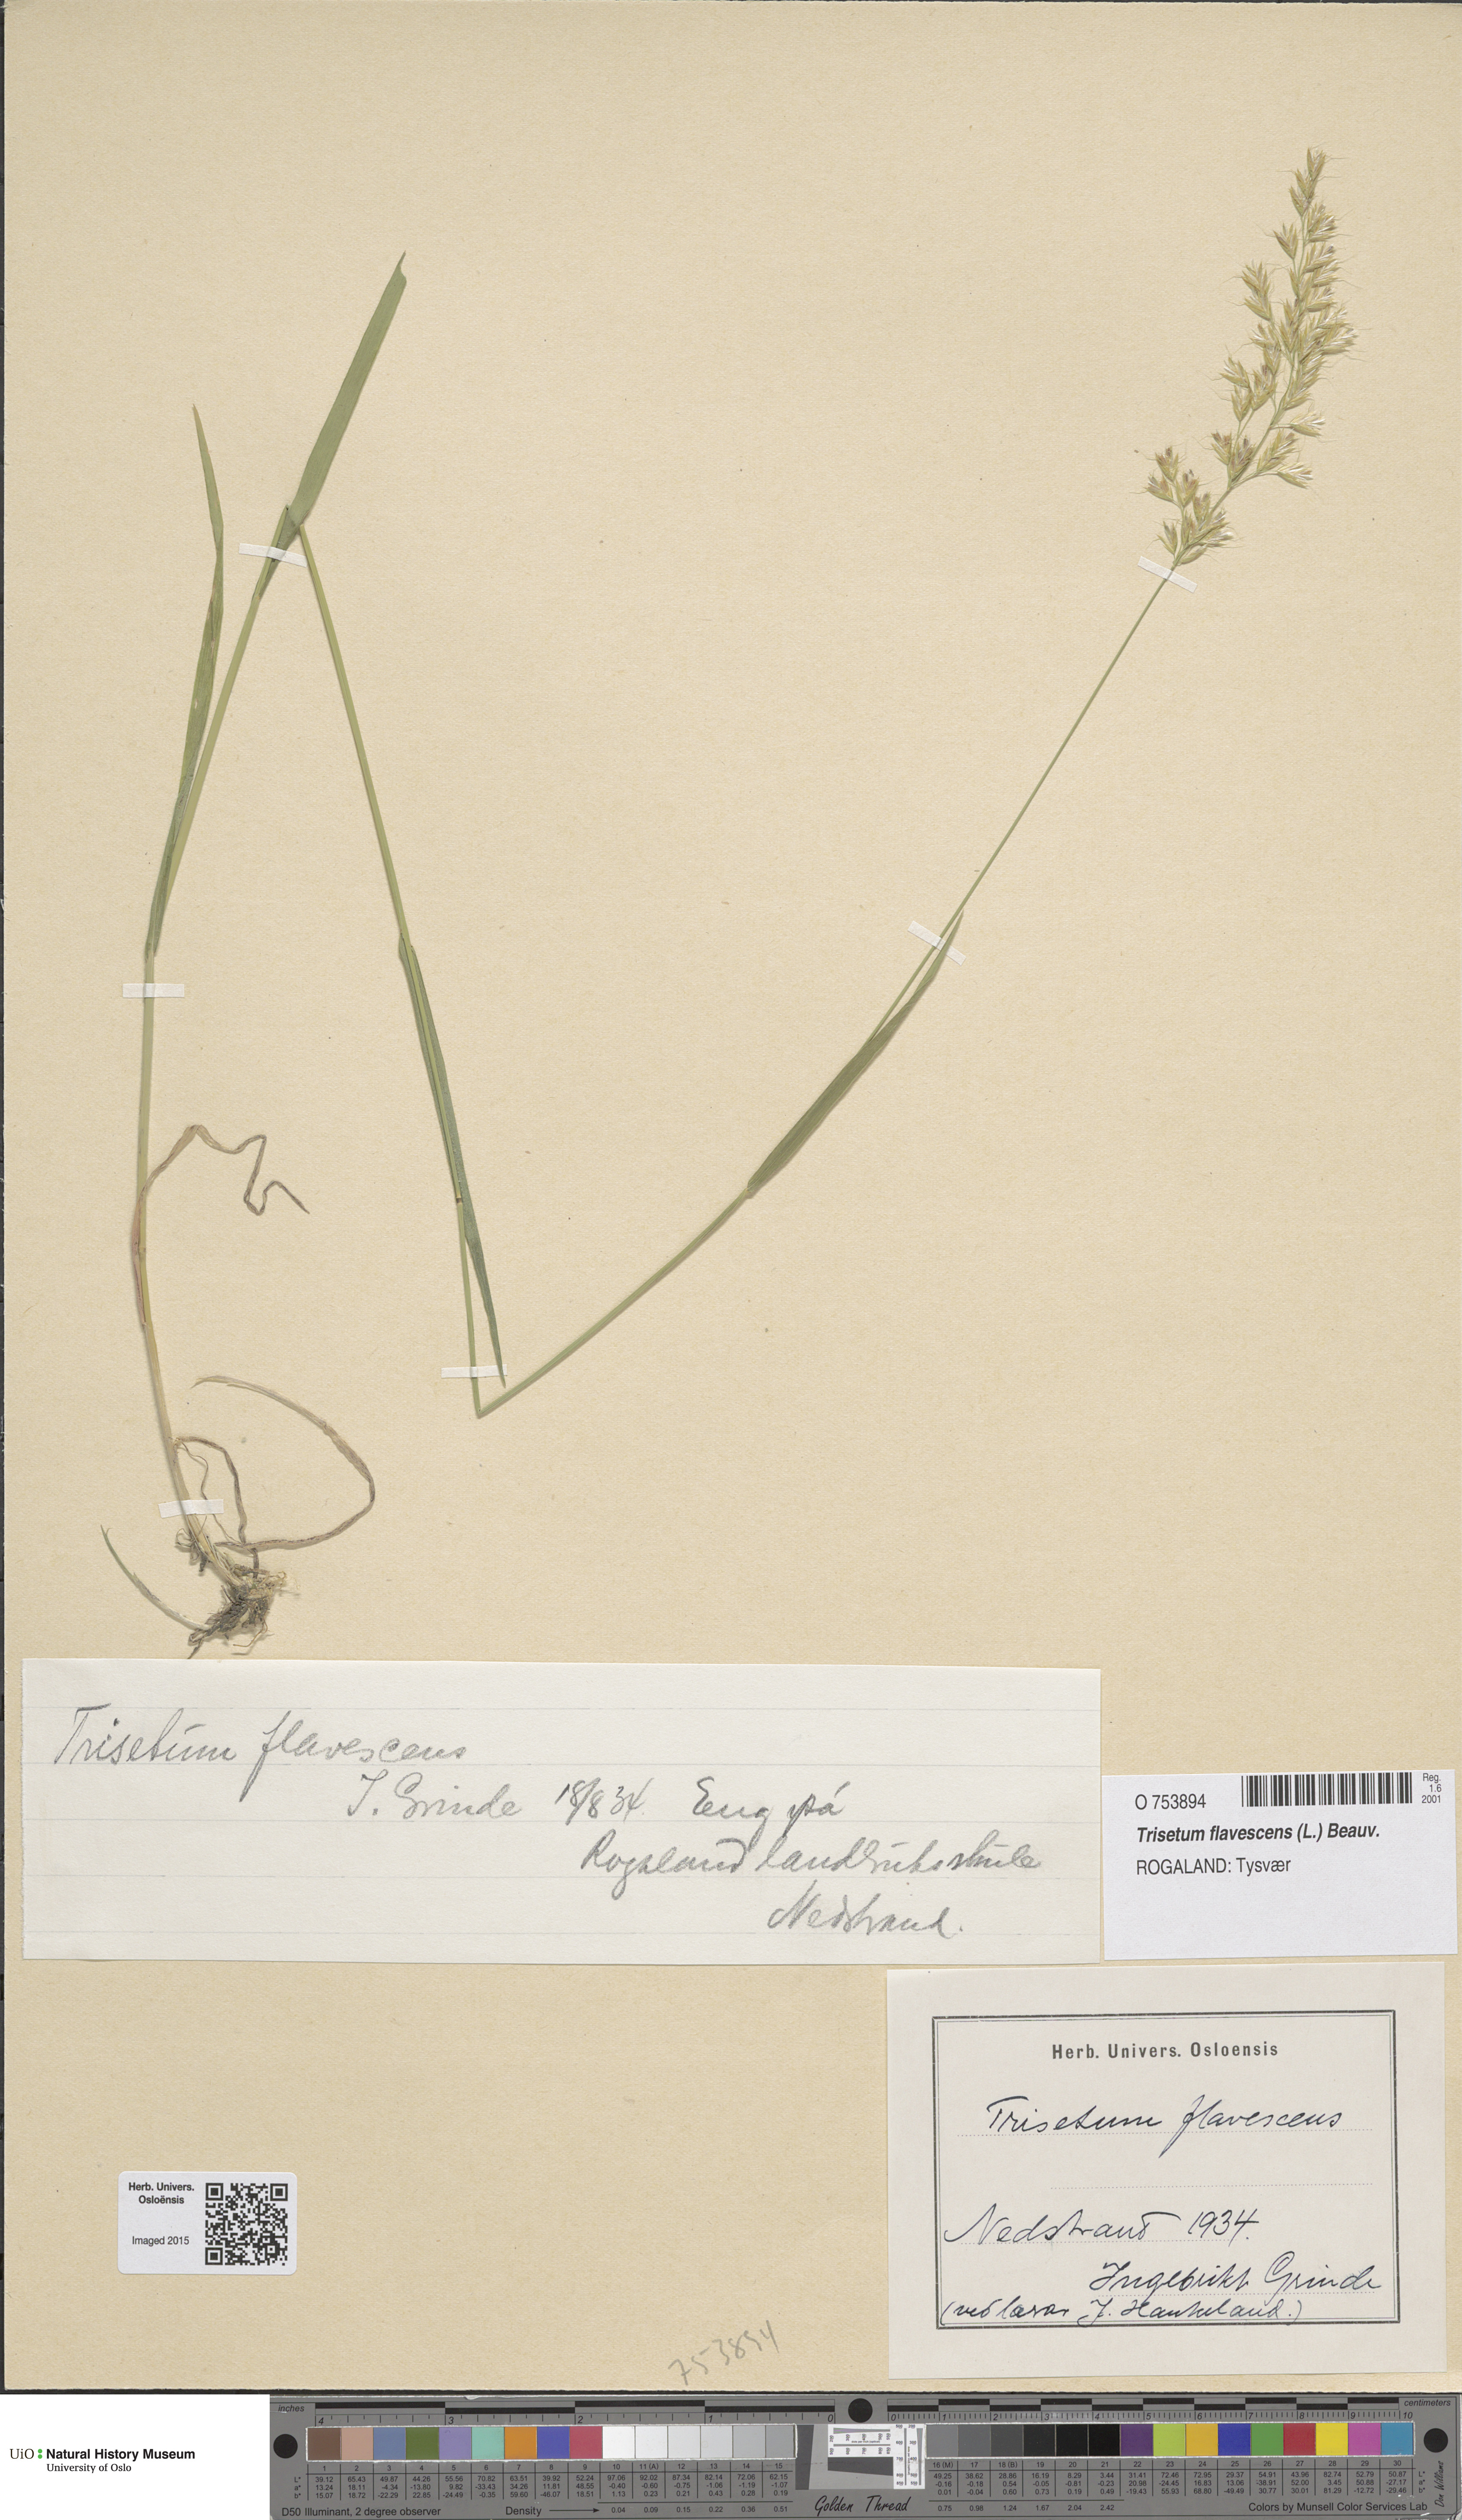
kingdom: Plantae
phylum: Tracheophyta
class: Liliopsida
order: Poales
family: Poaceae
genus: Trisetum
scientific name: Trisetum flavescens
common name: Yellow oat-grass
